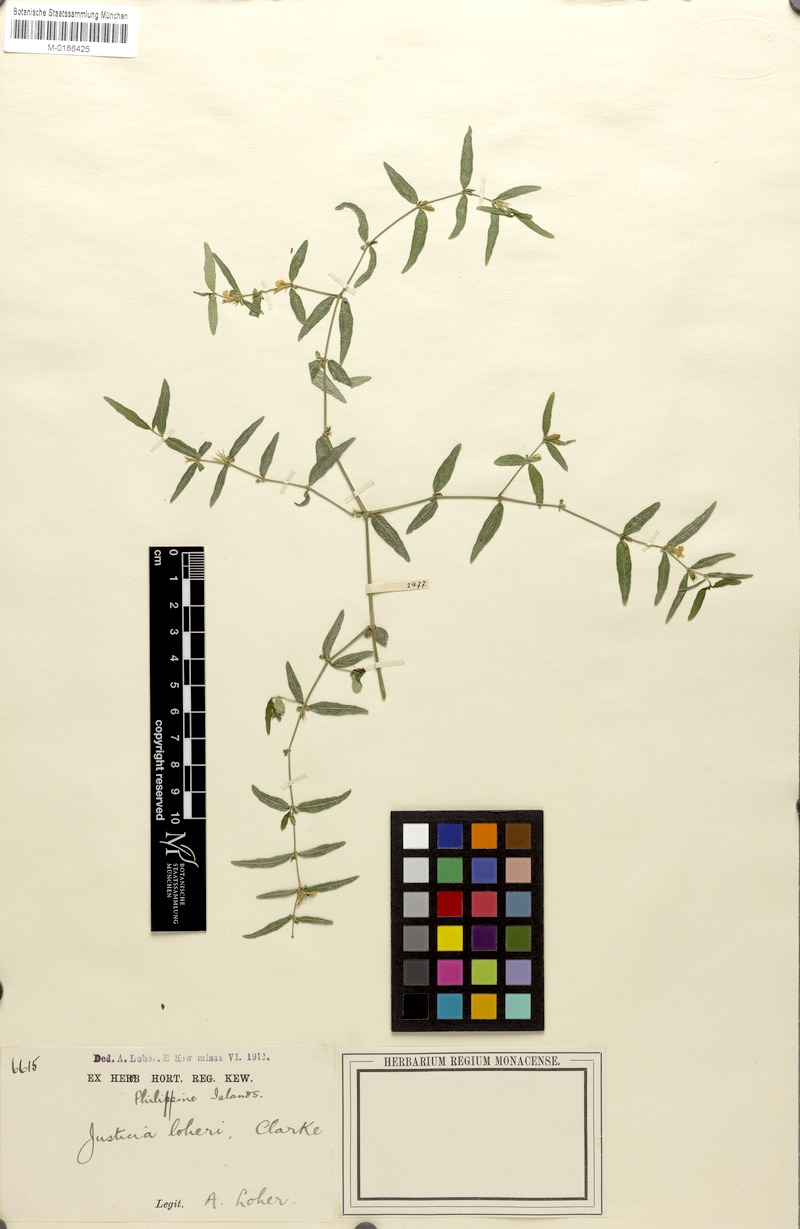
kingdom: Plantae
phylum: Tracheophyta
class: Magnoliopsida
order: Lamiales
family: Acanthaceae
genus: Justicia
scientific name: Justicia loheri
